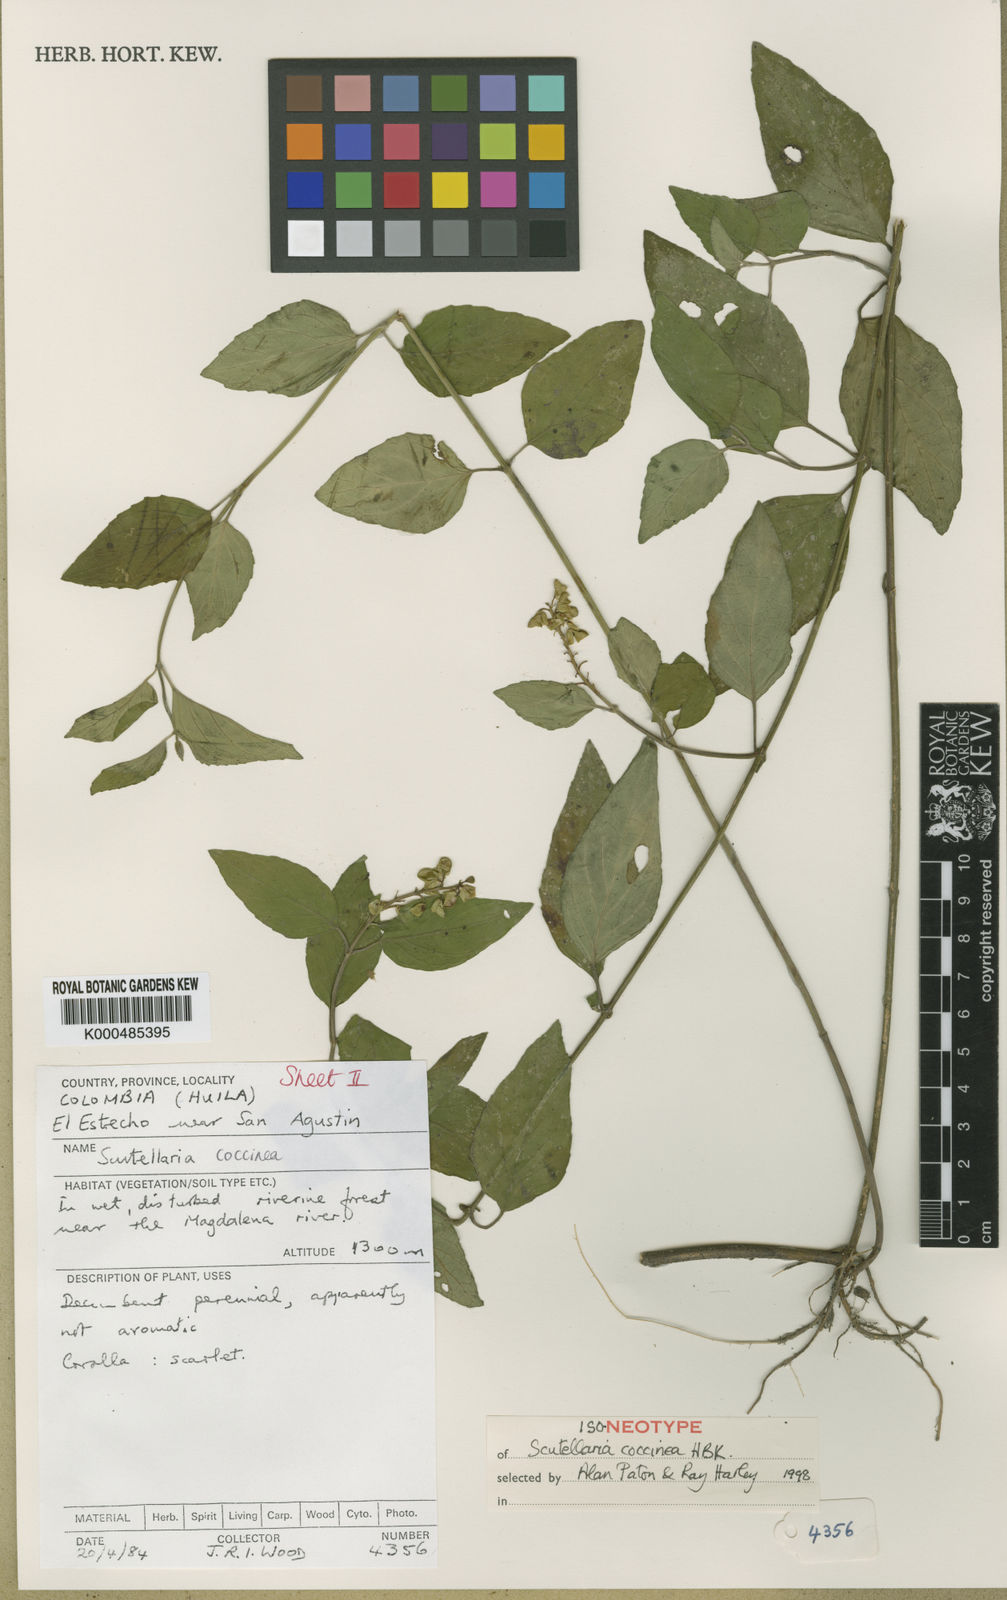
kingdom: Plantae
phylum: Tracheophyta
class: Magnoliopsida
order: Lamiales
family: Lamiaceae
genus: Scutellaria
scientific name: Scutellaria coccinea
